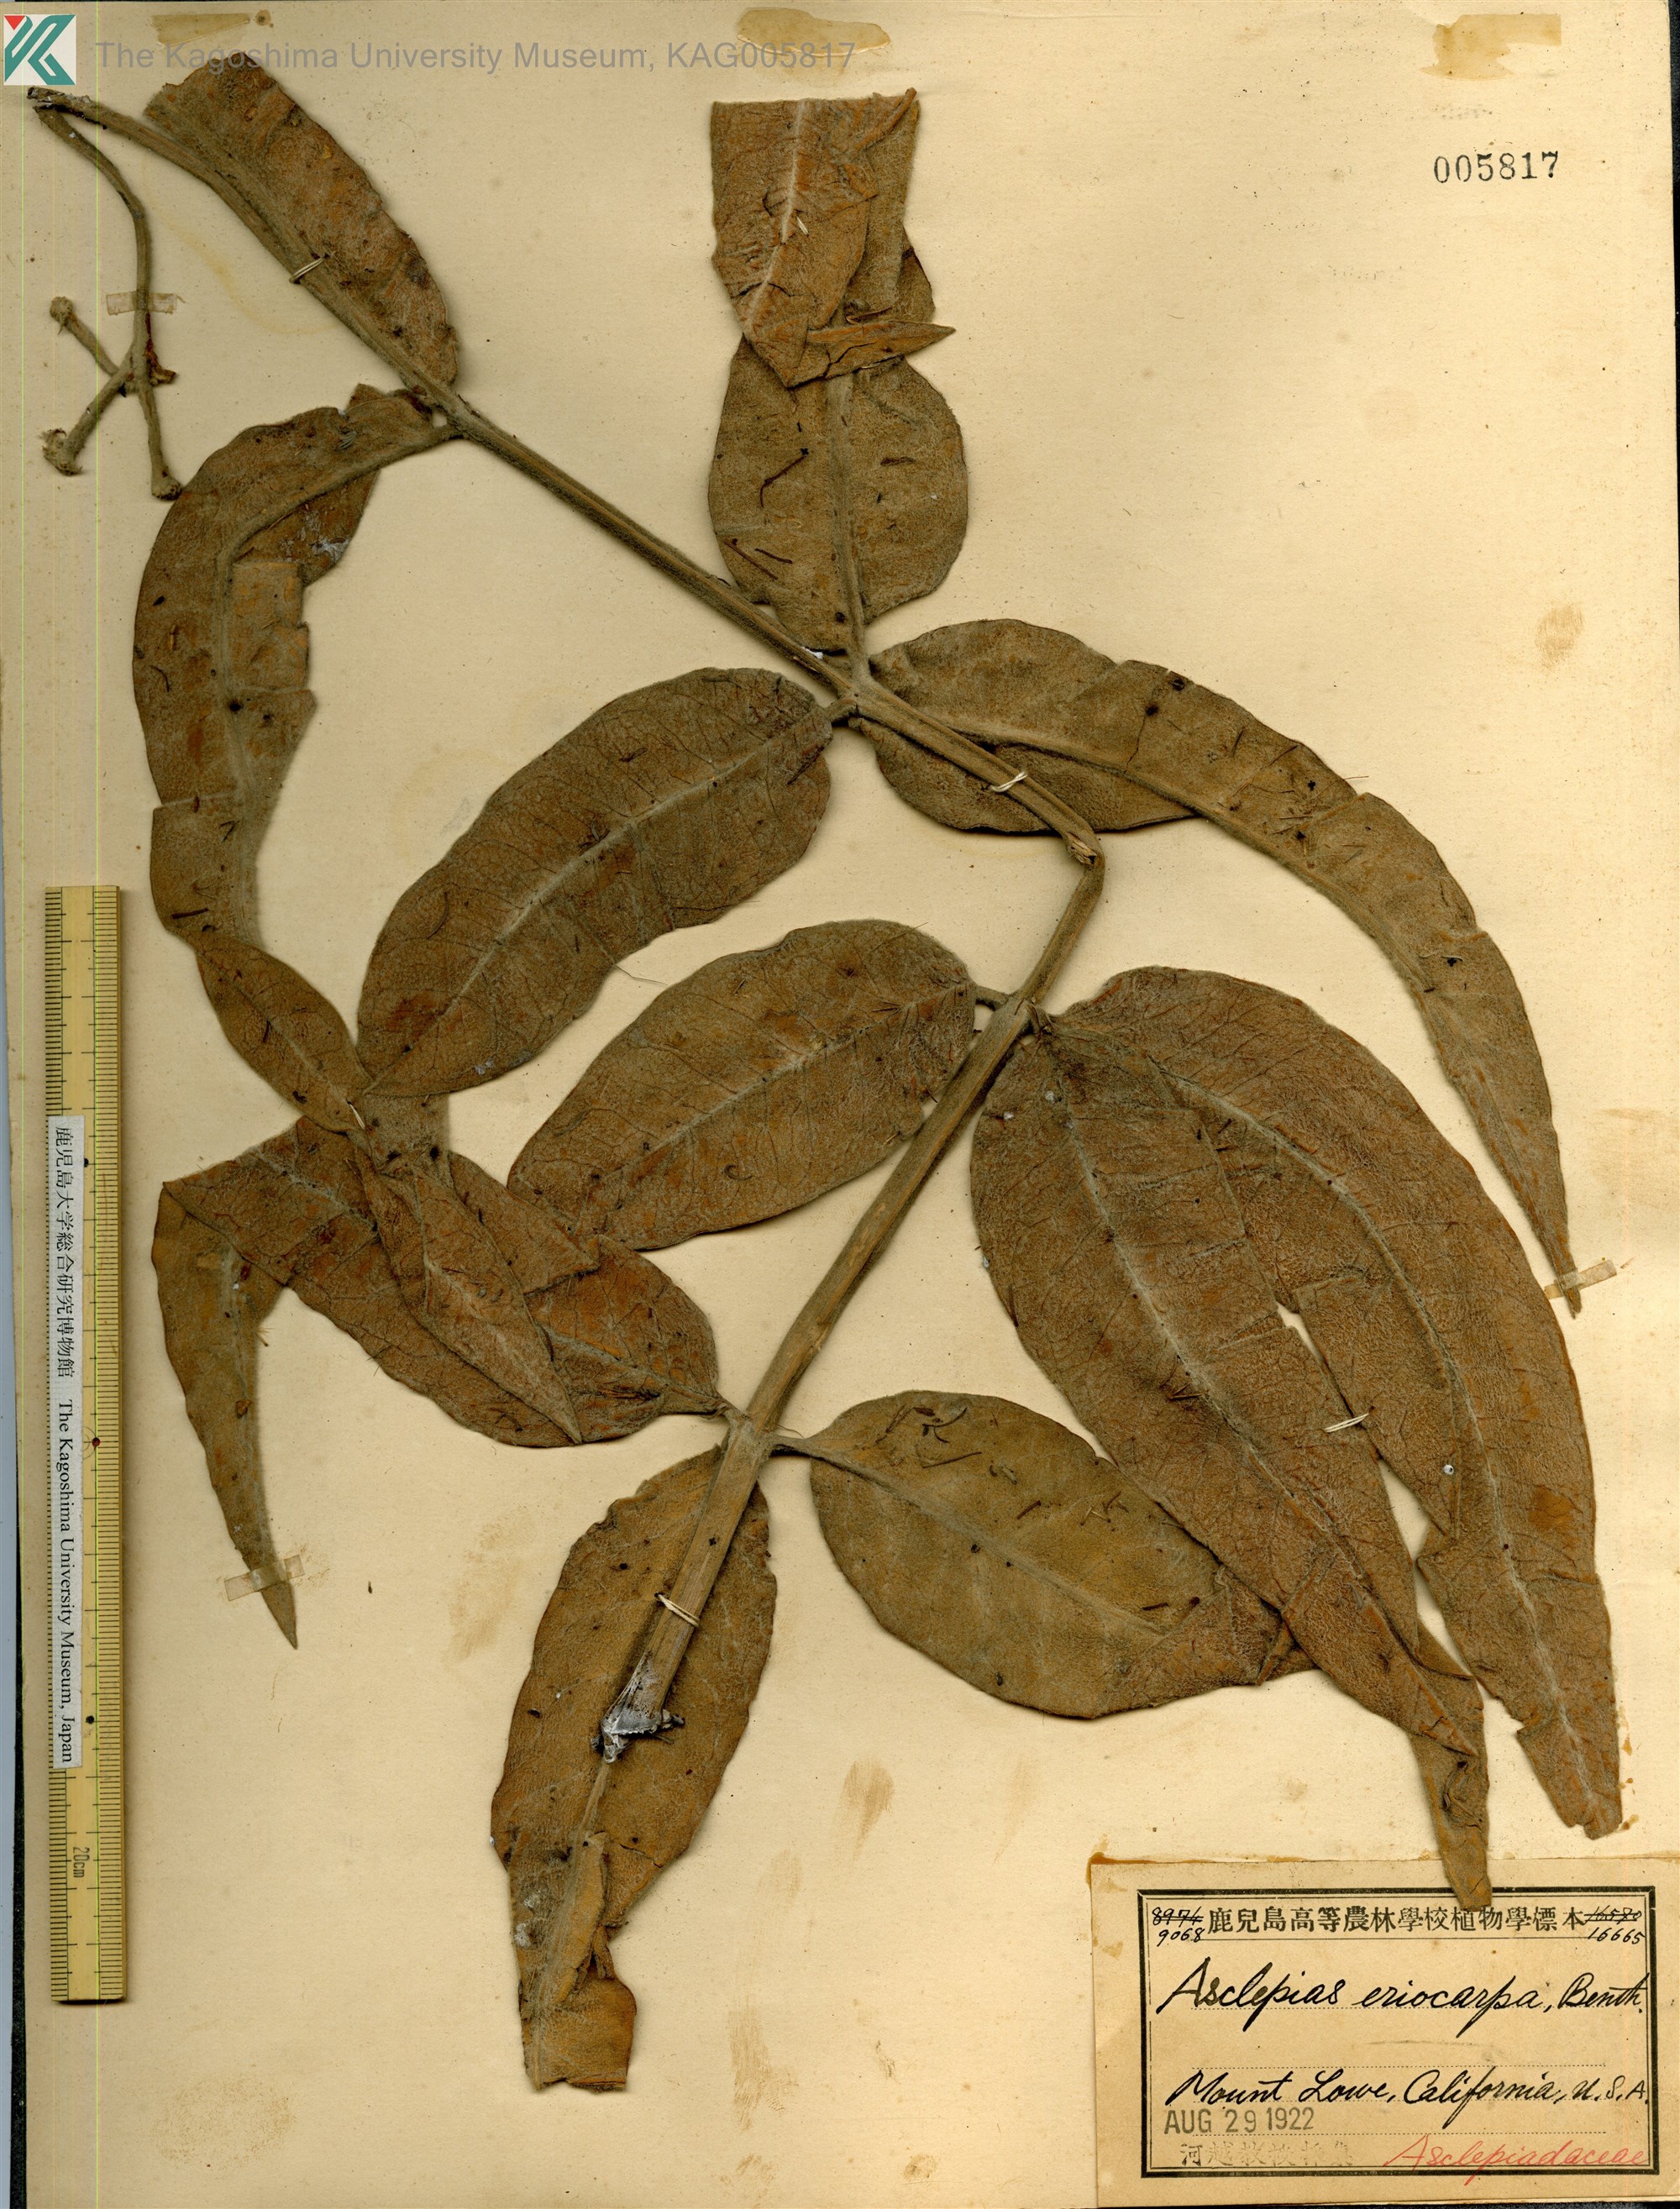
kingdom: Plantae
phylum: Tracheophyta
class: Magnoliopsida
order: Gentianales
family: Apocynaceae
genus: Asclepias
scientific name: Asclepias eriocarpa
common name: Indian milkweed
